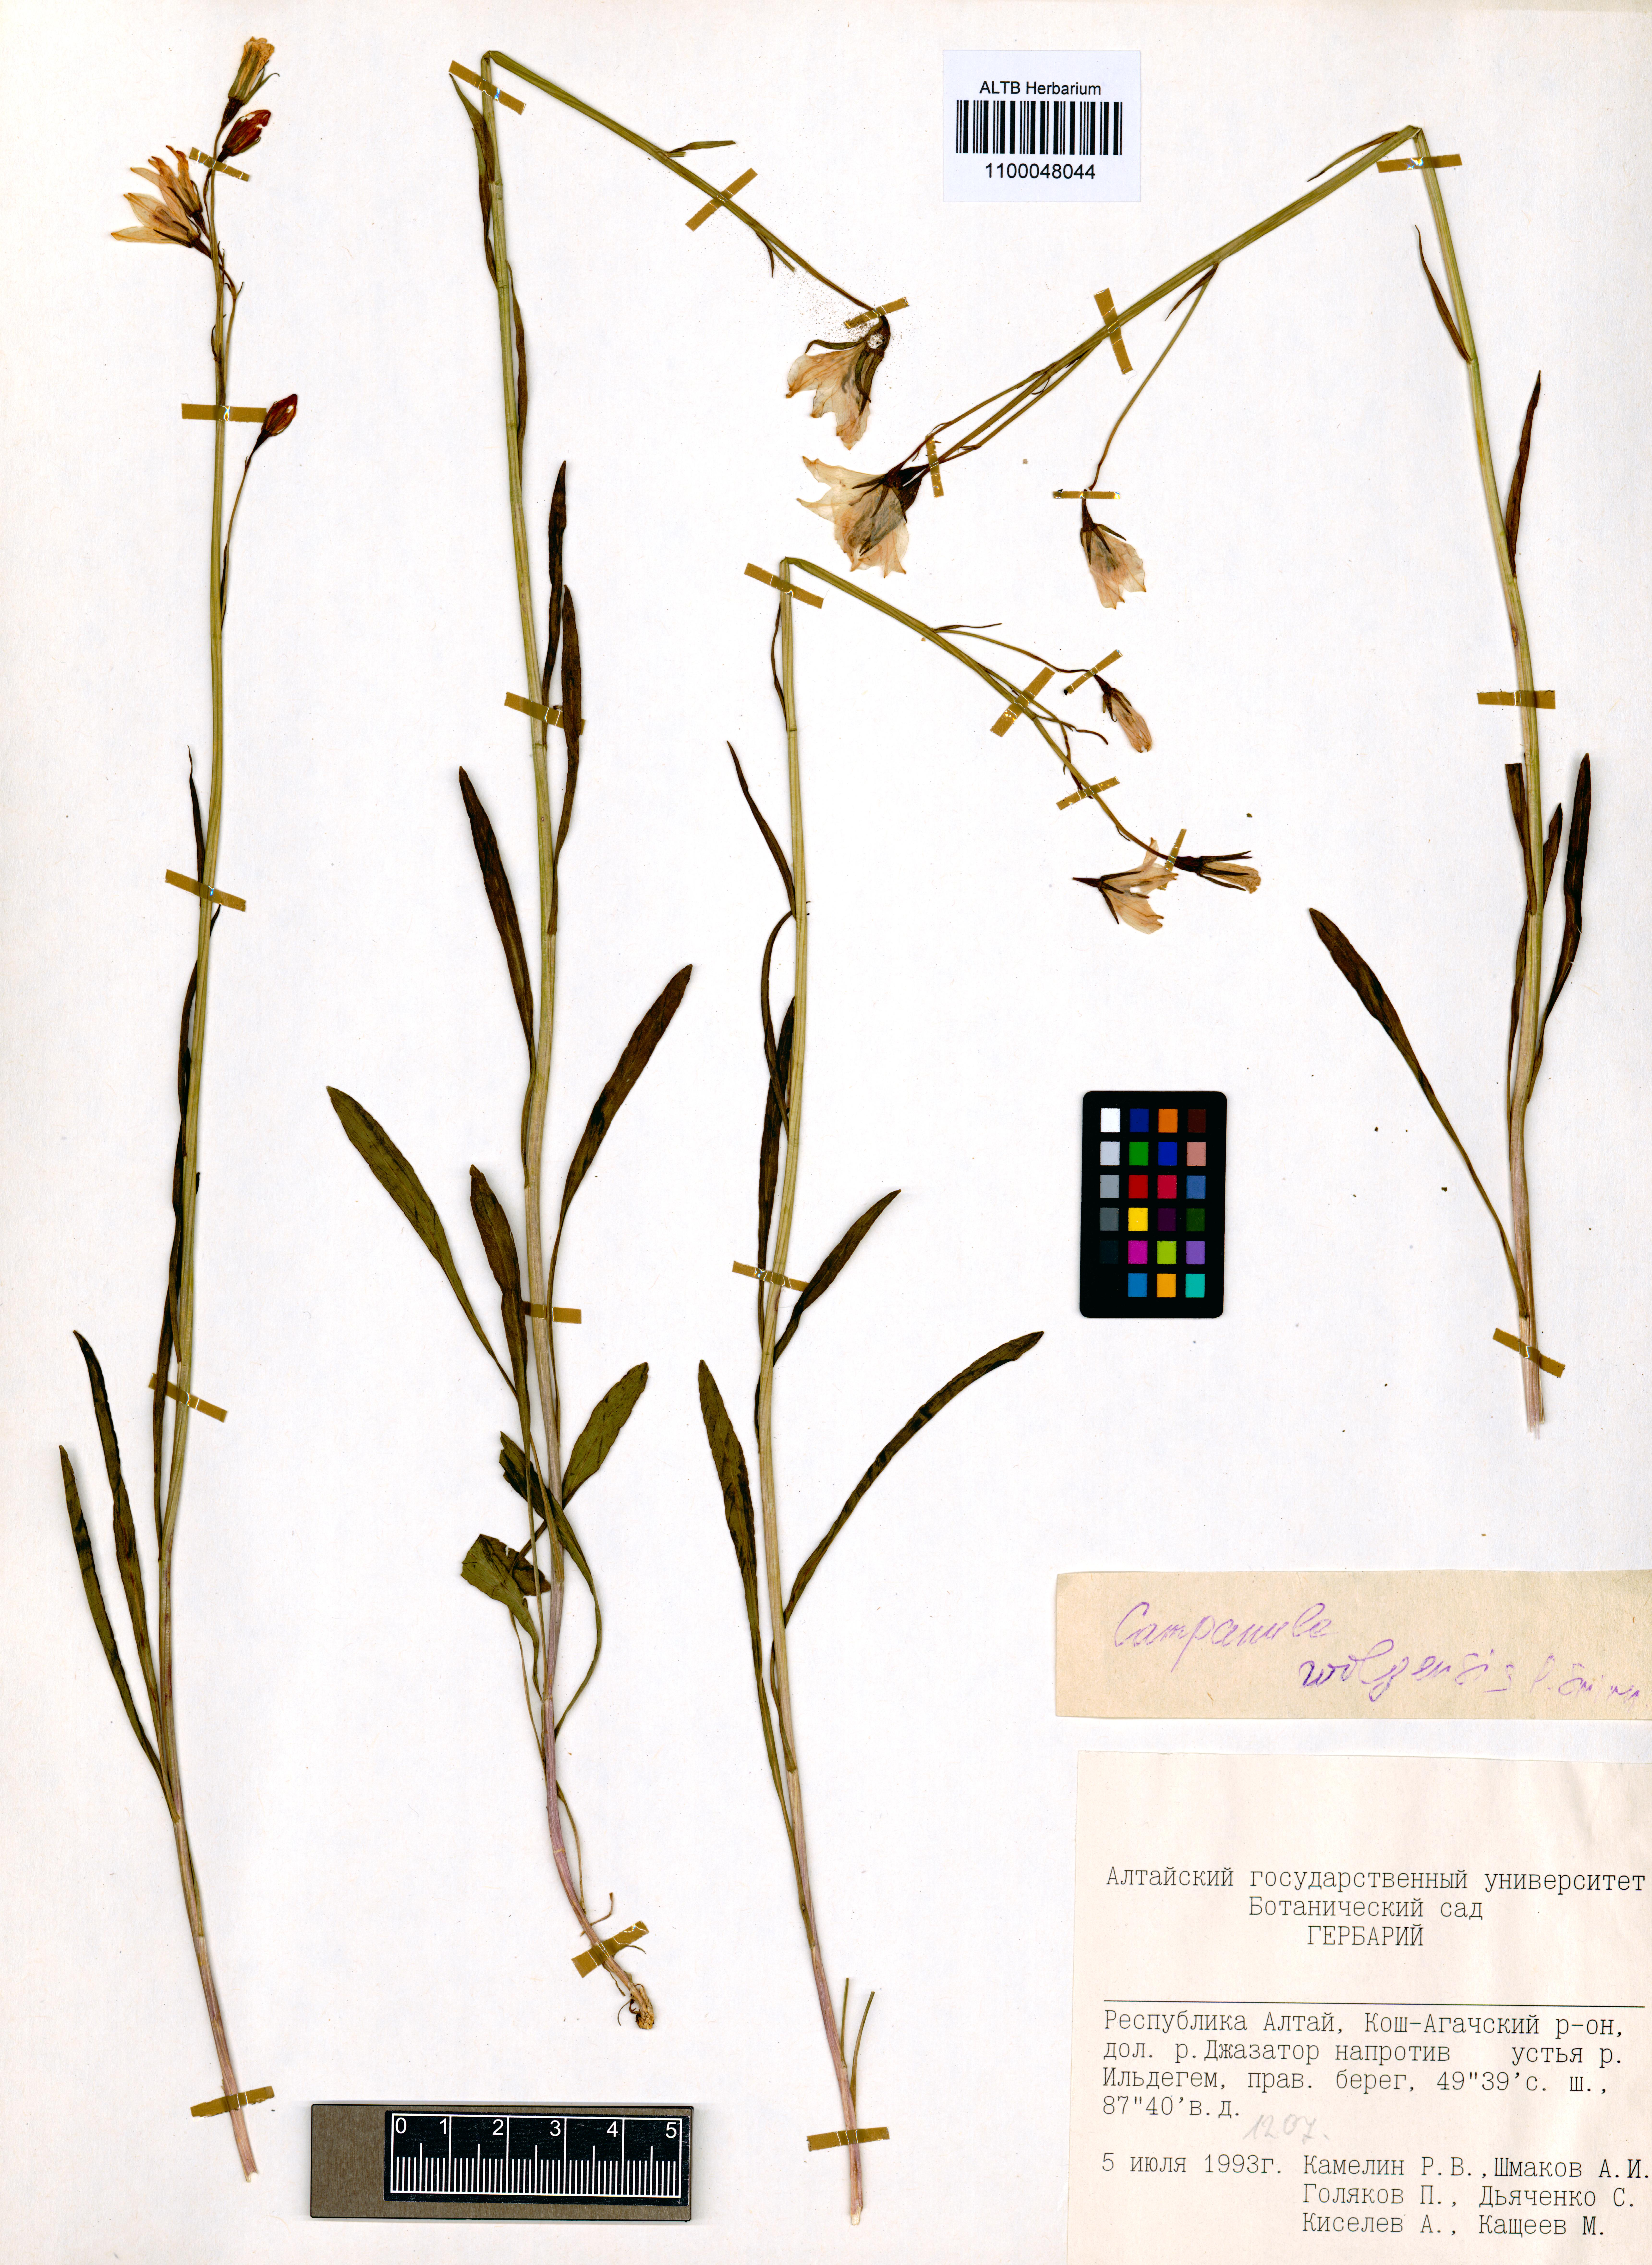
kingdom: Plantae
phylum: Tracheophyta
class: Magnoliopsida
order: Asterales
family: Campanulaceae
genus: Campanula
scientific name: Campanula stevenii
